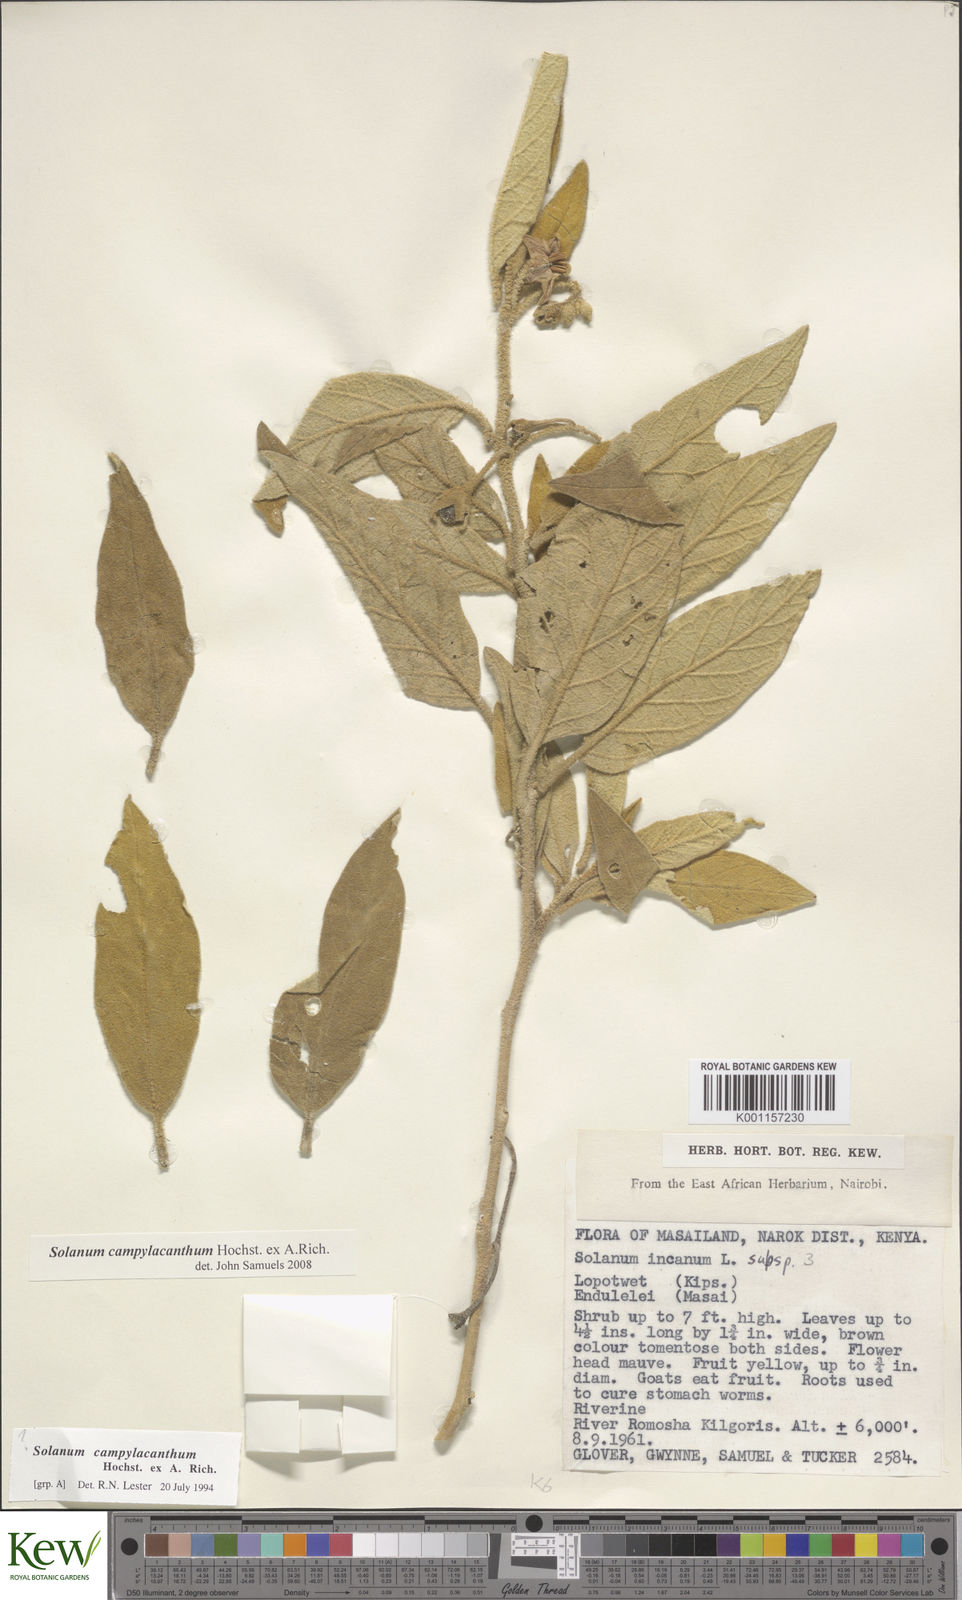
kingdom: Plantae
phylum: Tracheophyta
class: Magnoliopsida
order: Solanales
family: Solanaceae
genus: Solanum
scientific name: Solanum campylacanthum
